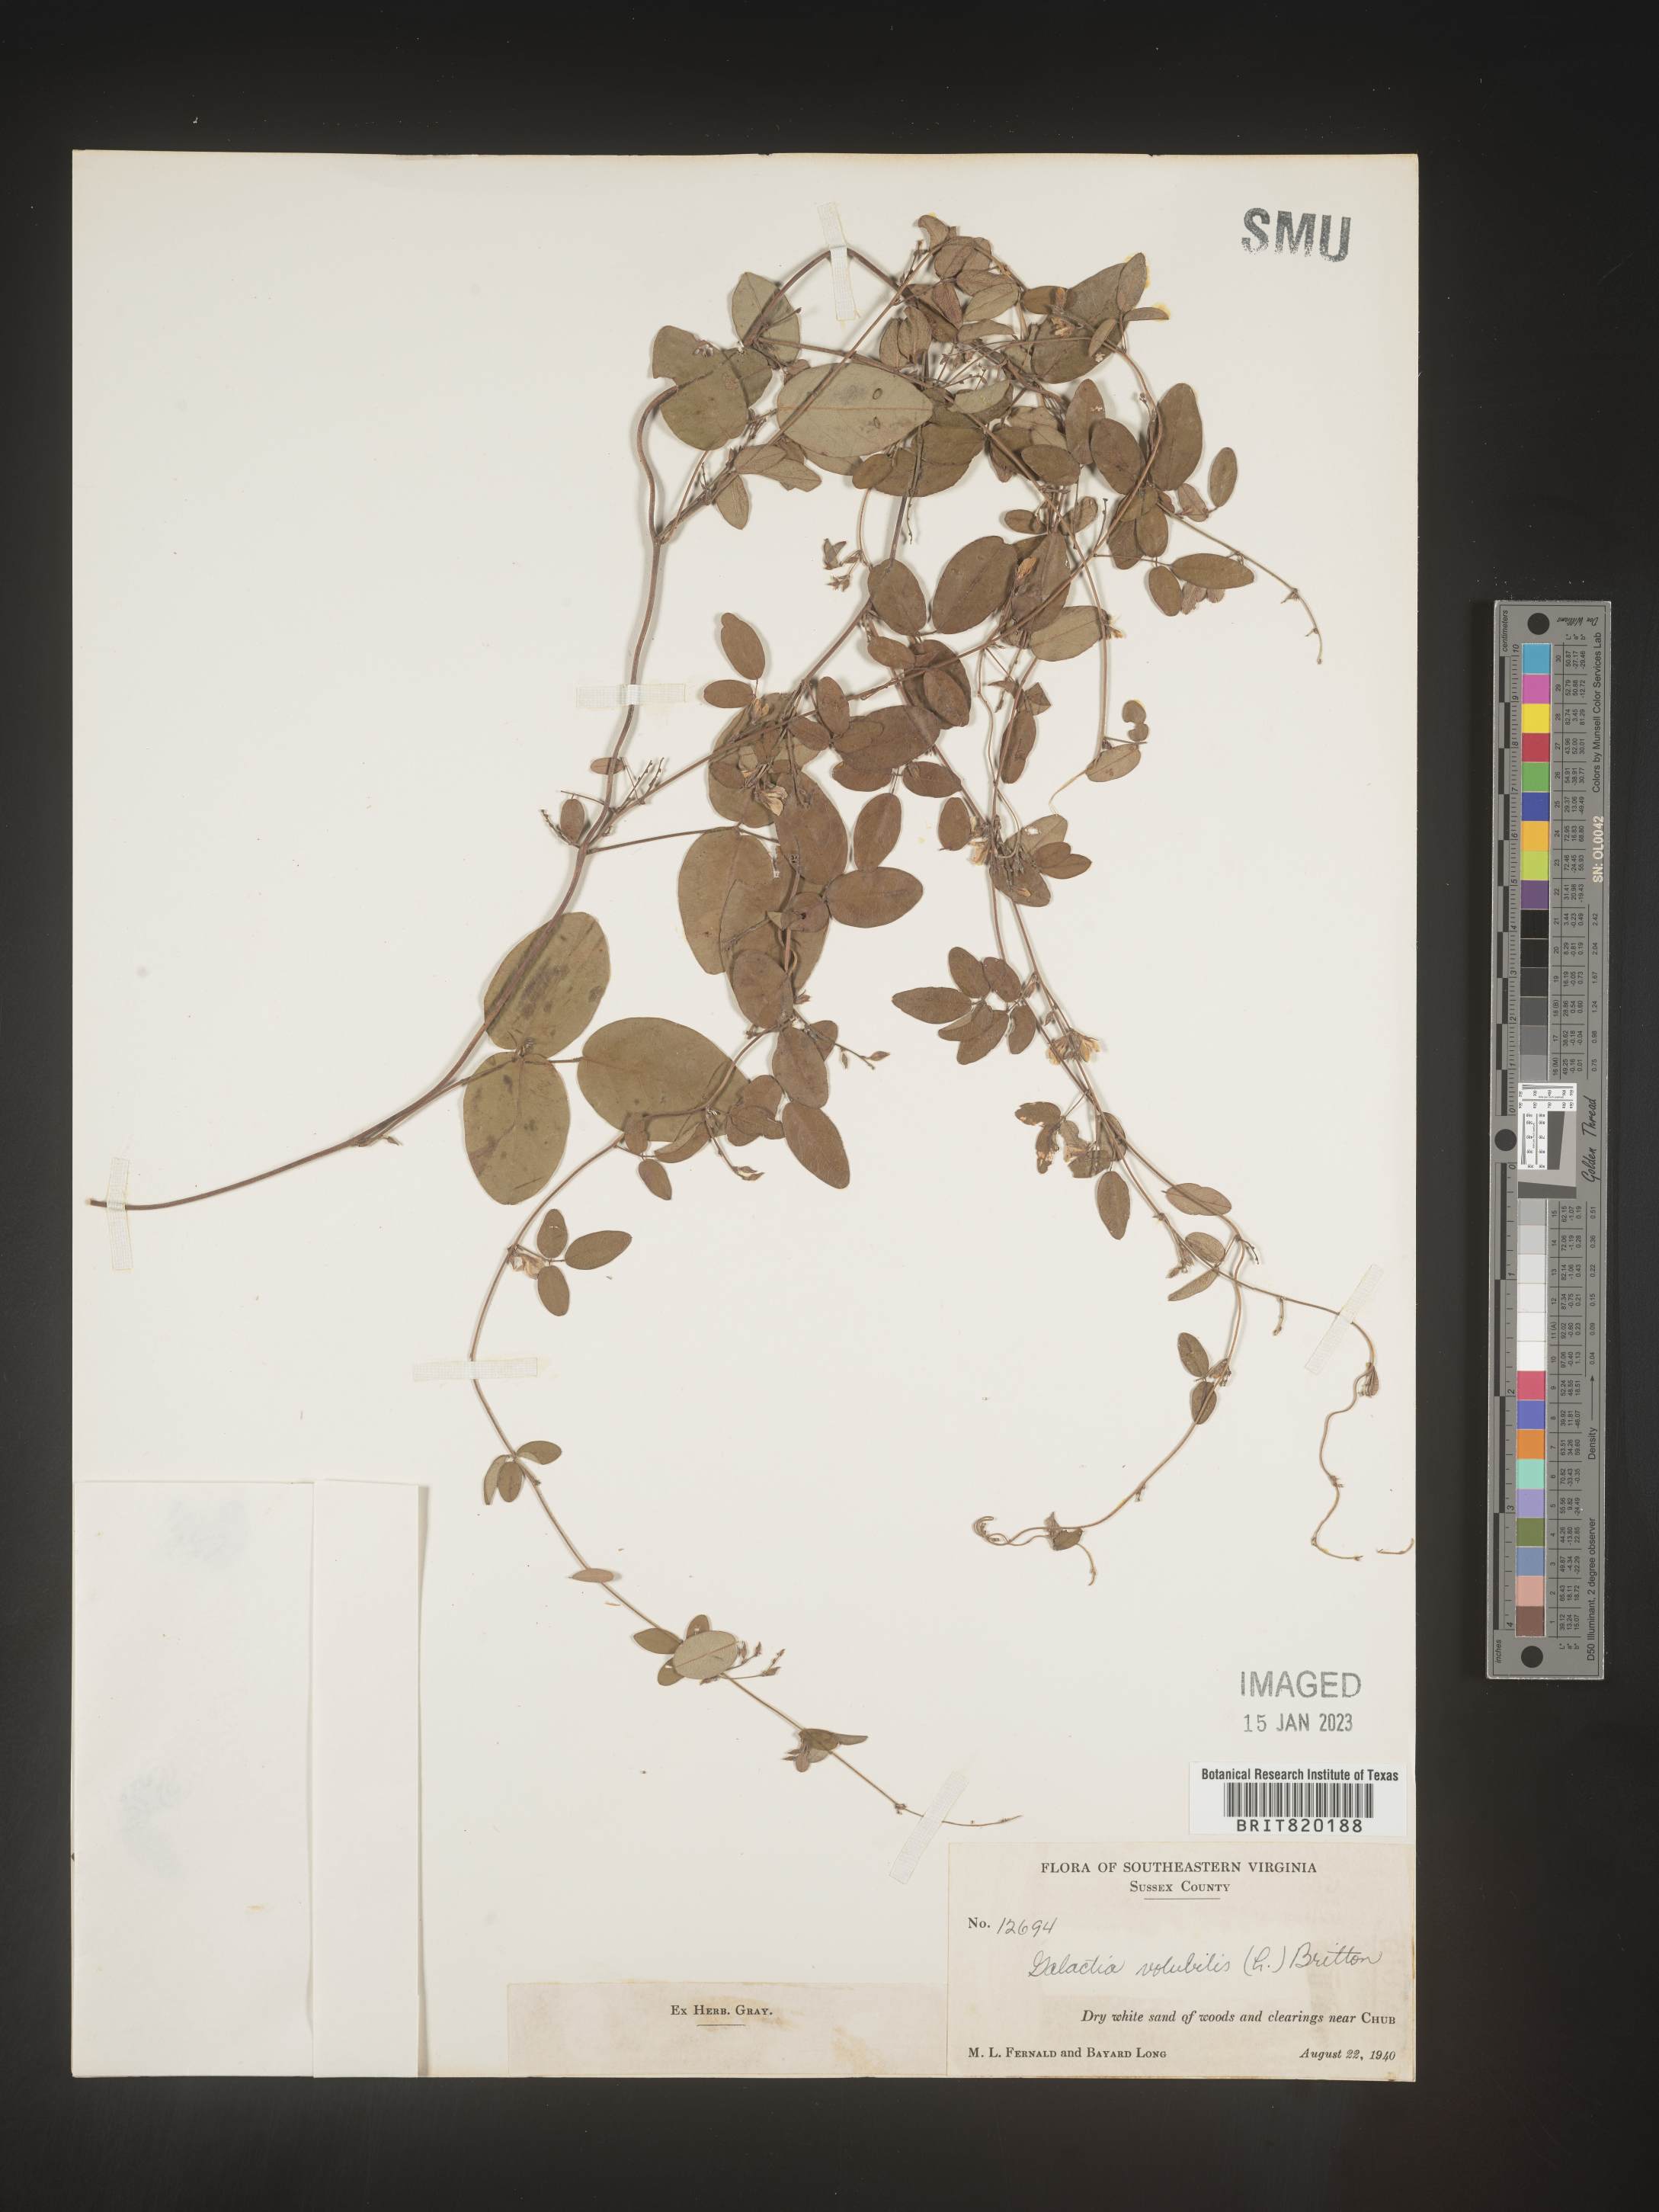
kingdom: Plantae
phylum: Tracheophyta
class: Magnoliopsida
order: Fabales
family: Fabaceae
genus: Galactia
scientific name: Galactia volubilis
